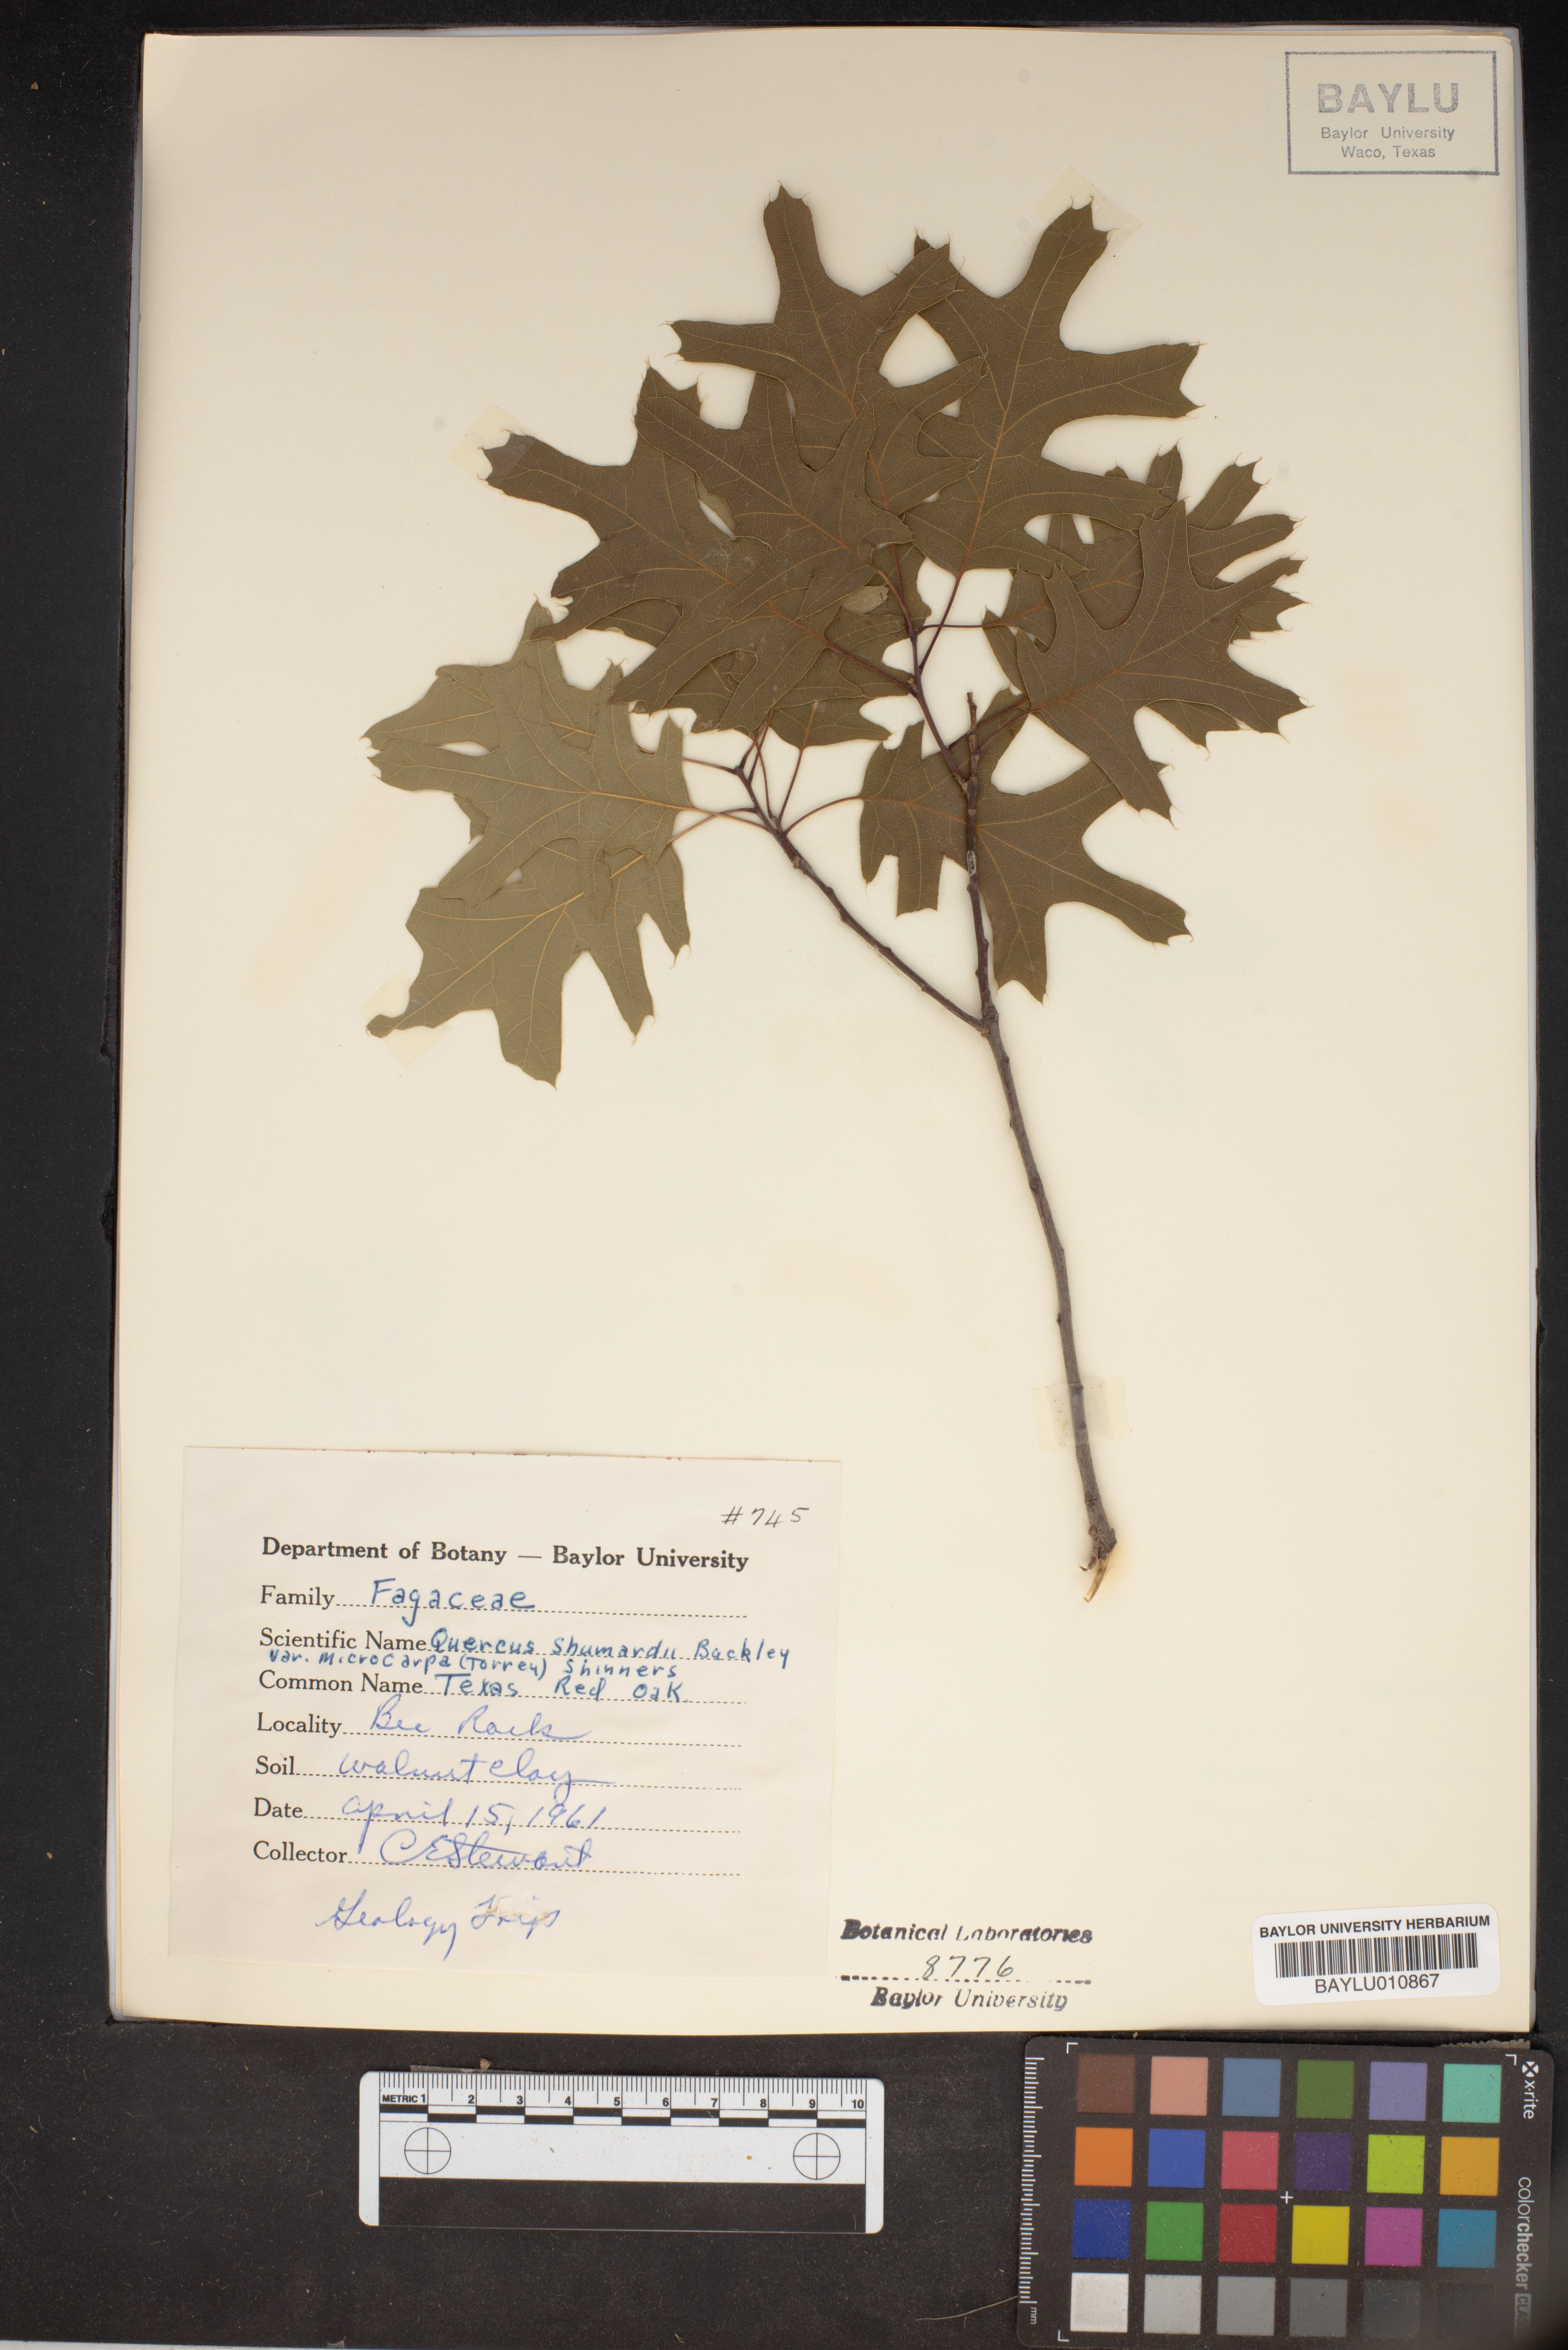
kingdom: Plantae
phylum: Tracheophyta
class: Magnoliopsida
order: Fagales
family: Fagaceae
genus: Quercus
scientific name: Quercus gravesii
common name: Chisos red oak
